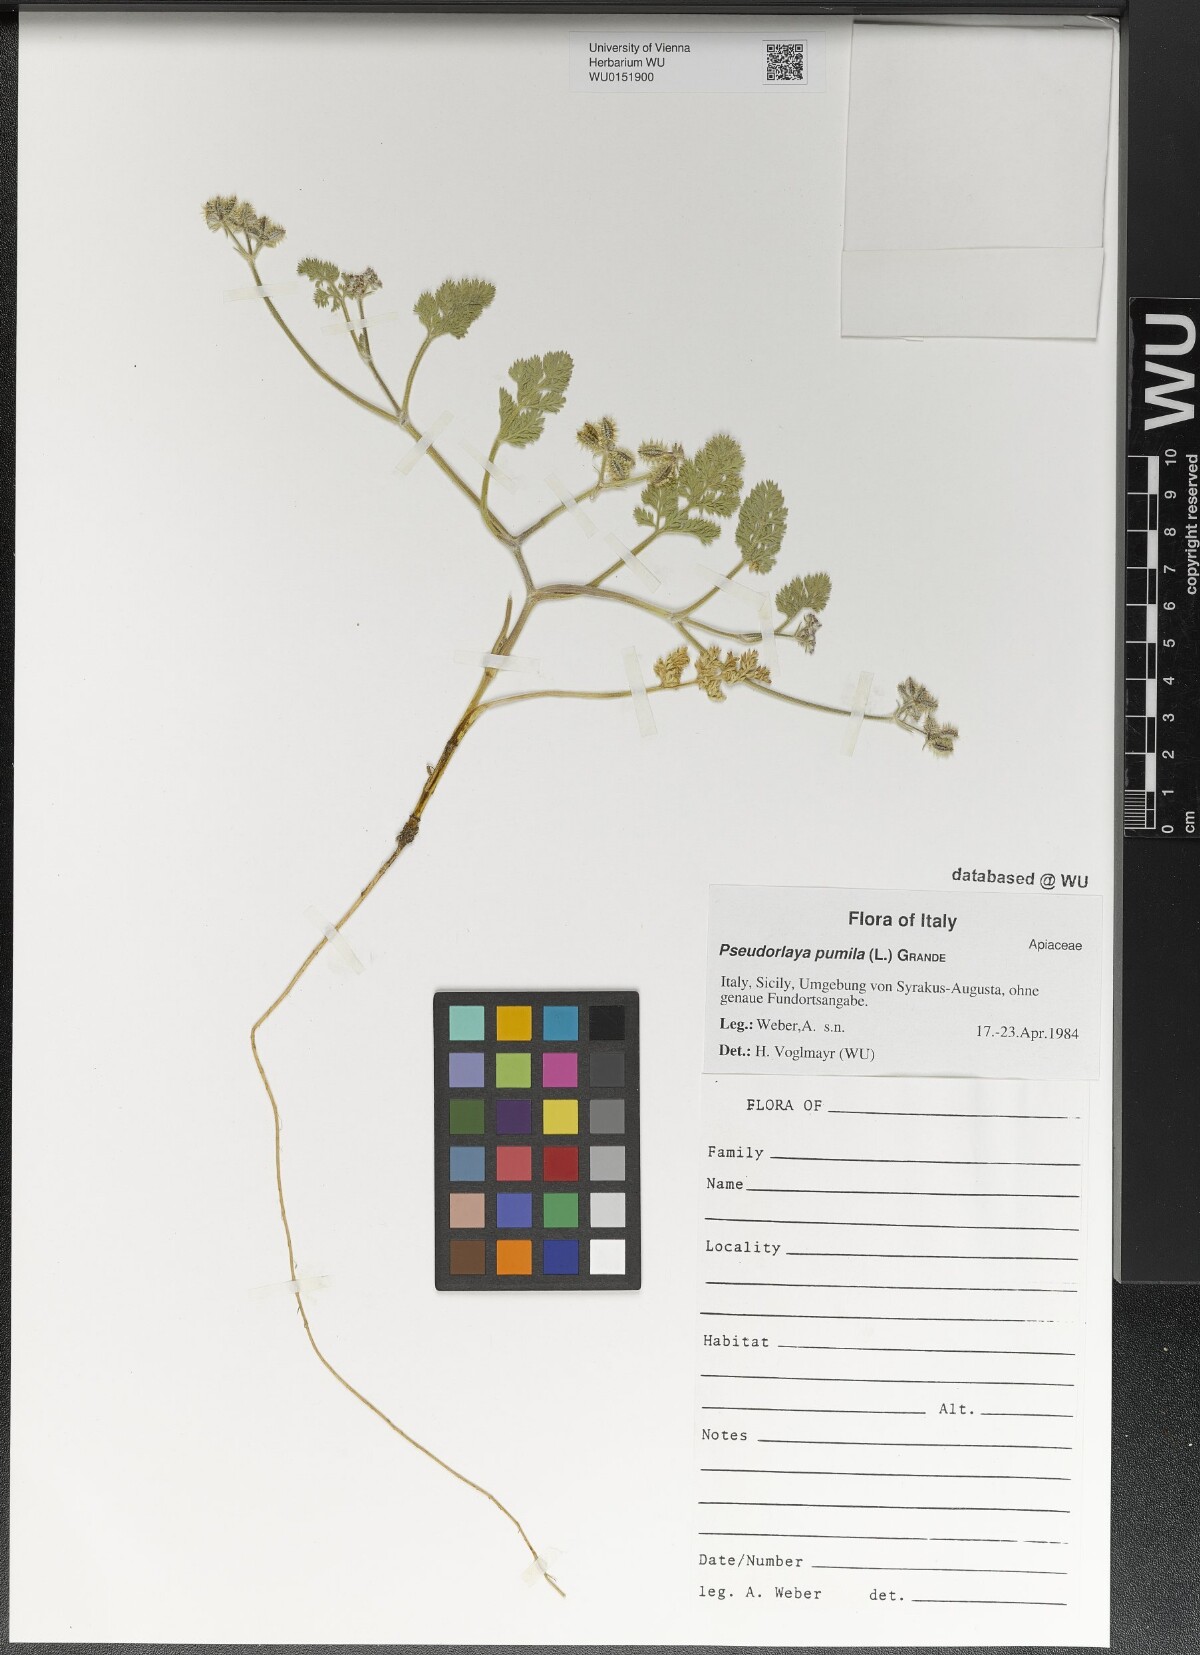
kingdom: Plantae
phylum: Tracheophyta
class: Magnoliopsida
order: Apiales
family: Apiaceae
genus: Daucus
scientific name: Daucus pumilus
